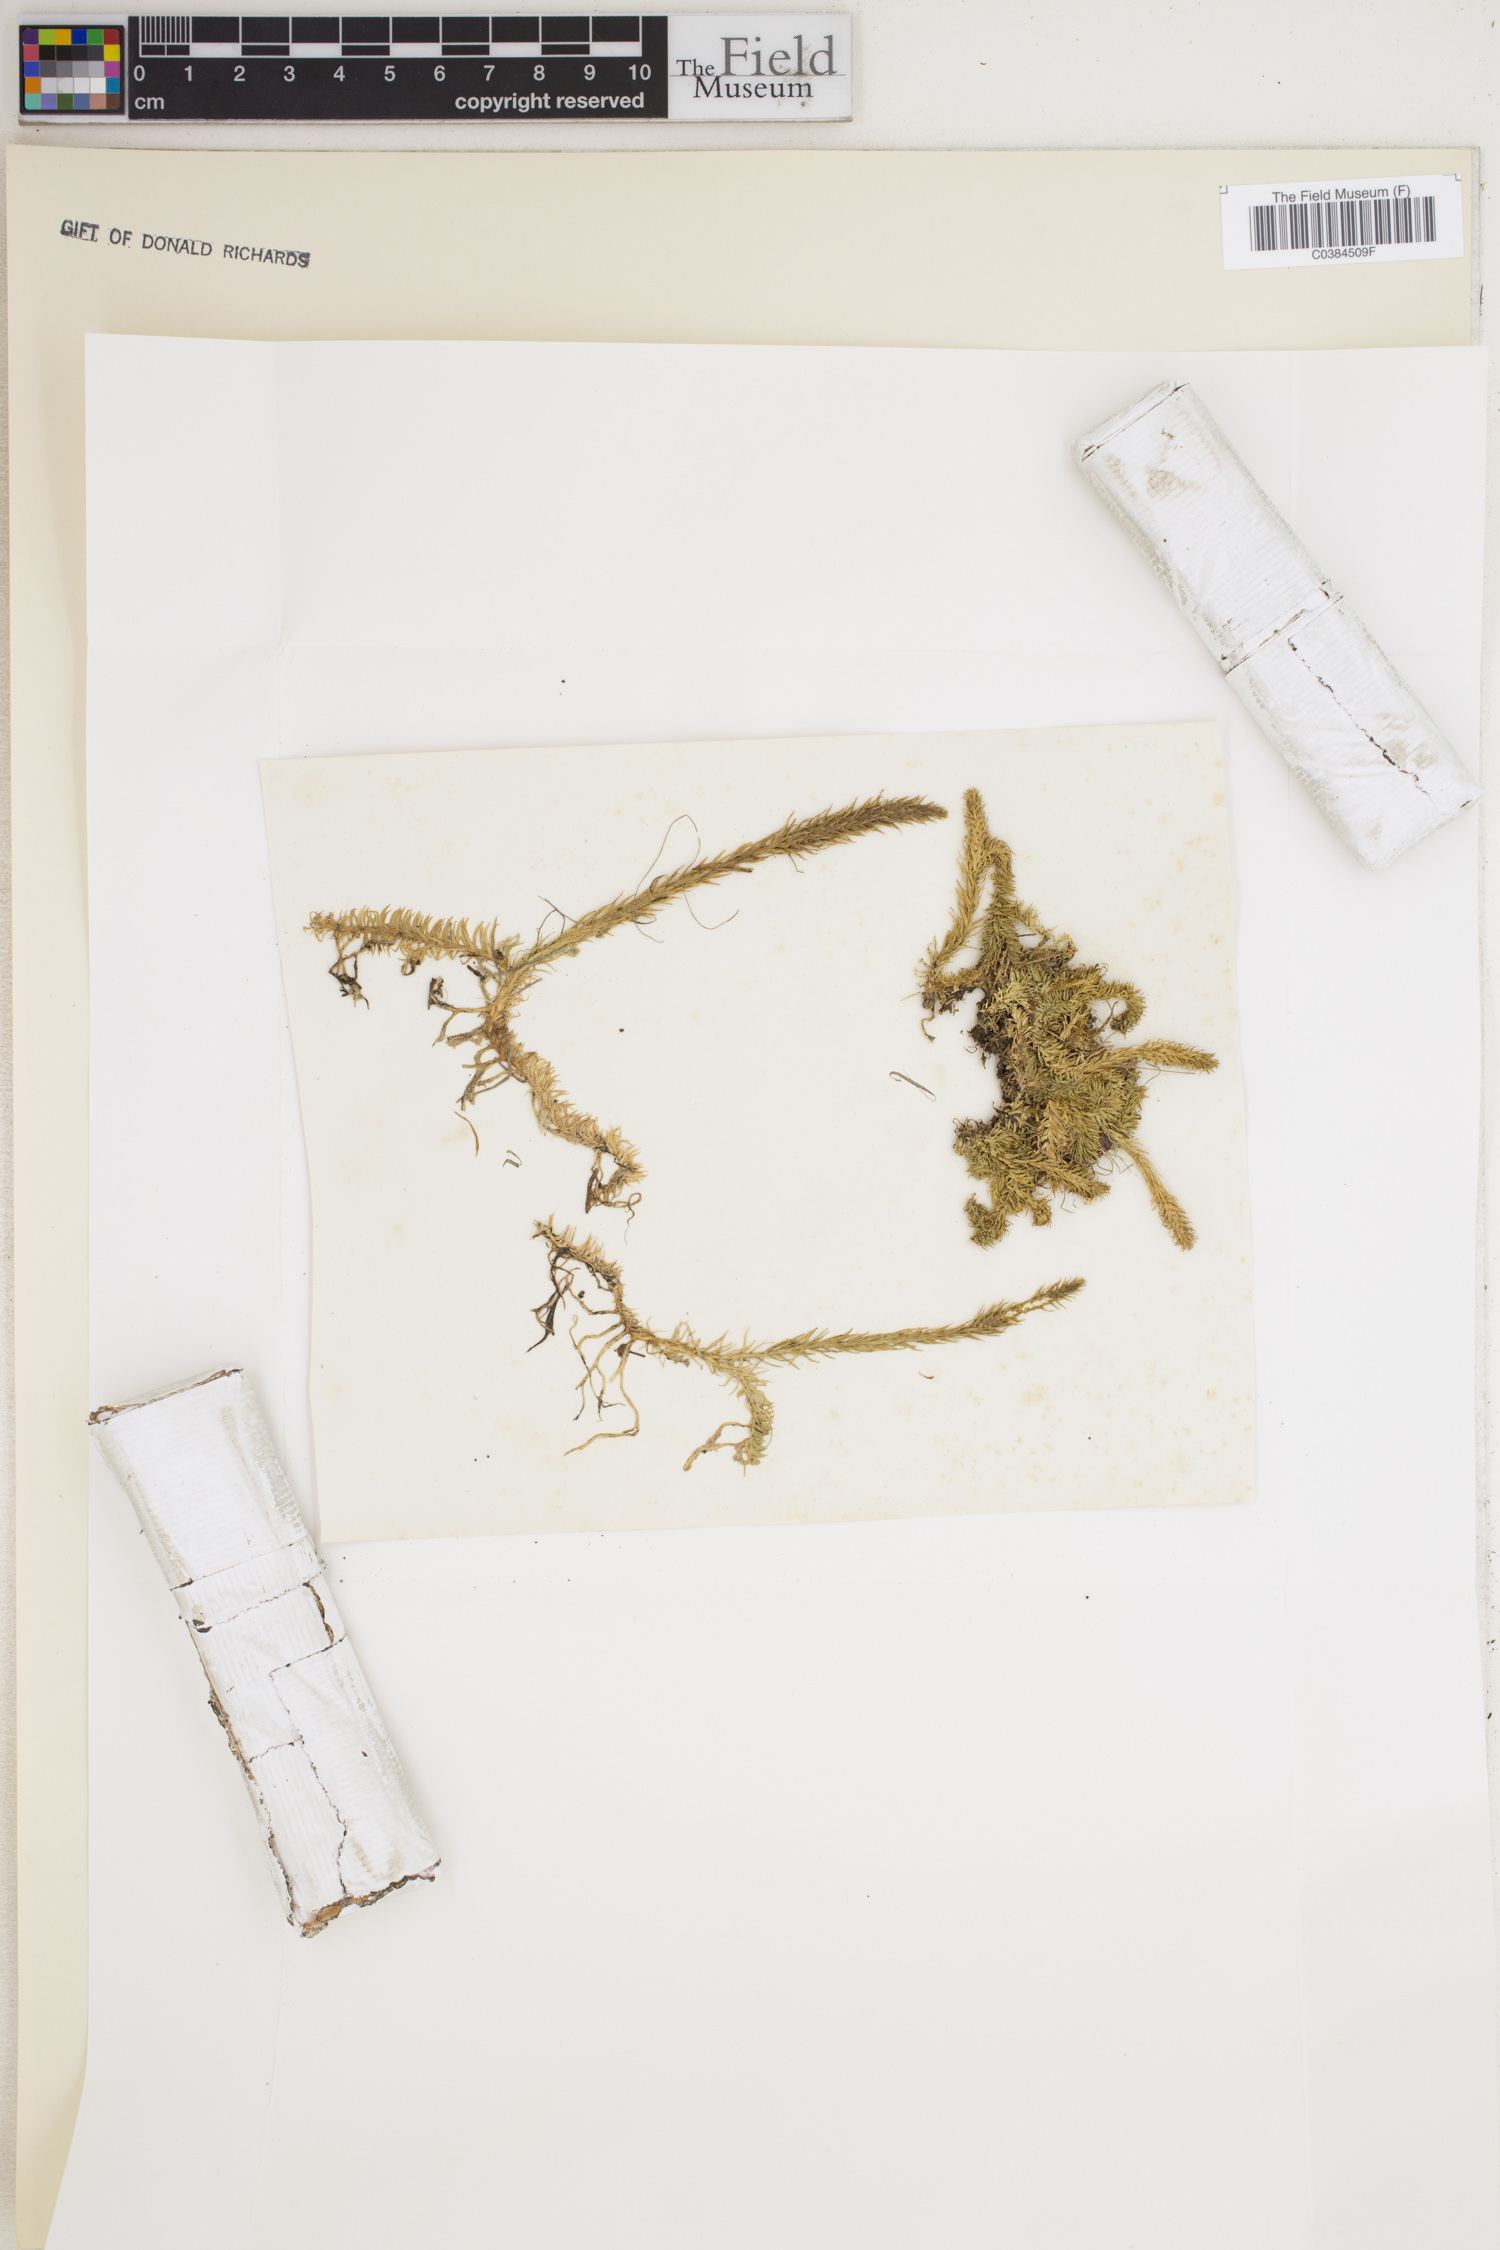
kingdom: Plantae
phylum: Tracheophyta
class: Lycopodiopsida
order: Lycopodiales
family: Lycopodiaceae
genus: Lycopodiella
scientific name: Lycopodiella inundata
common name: Marsh clubmoss
